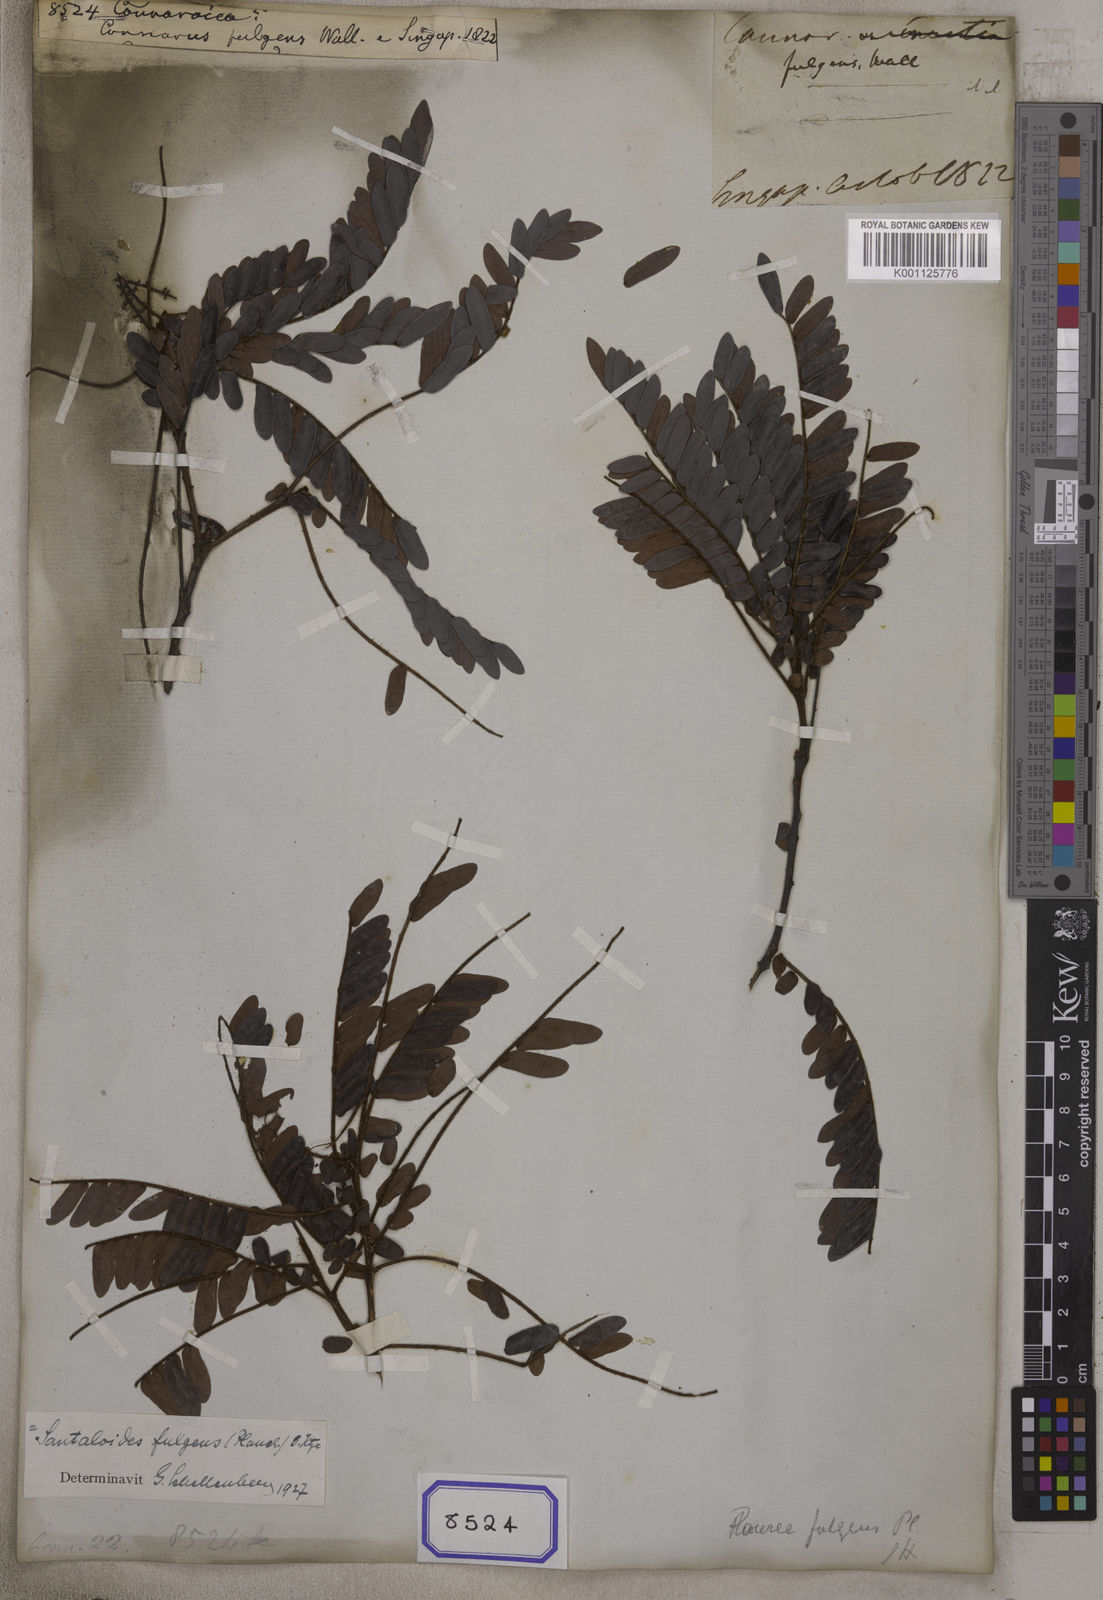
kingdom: Plantae
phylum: Tracheophyta
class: Magnoliopsida
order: Oxalidales
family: Connaraceae
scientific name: Connaraceae
